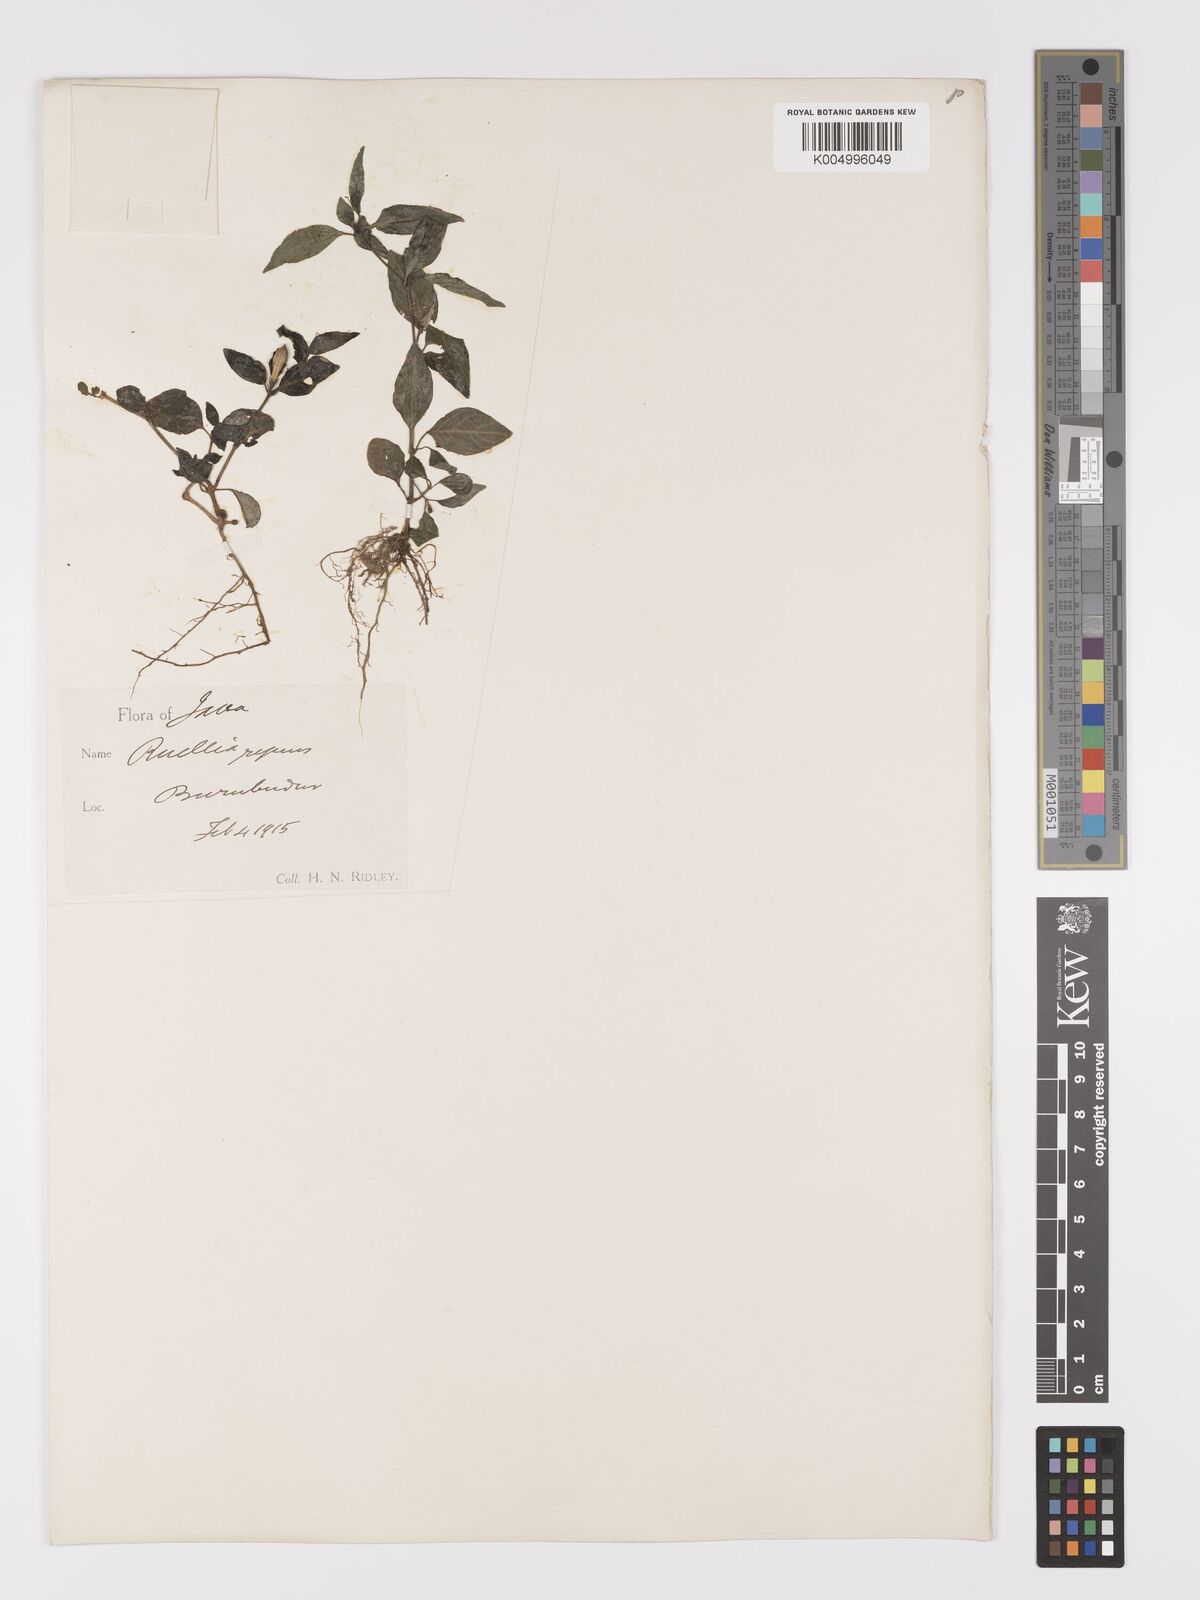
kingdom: Plantae
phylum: Tracheophyta
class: Magnoliopsida
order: Lamiales
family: Acanthaceae
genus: Ruellia
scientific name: Ruellia
